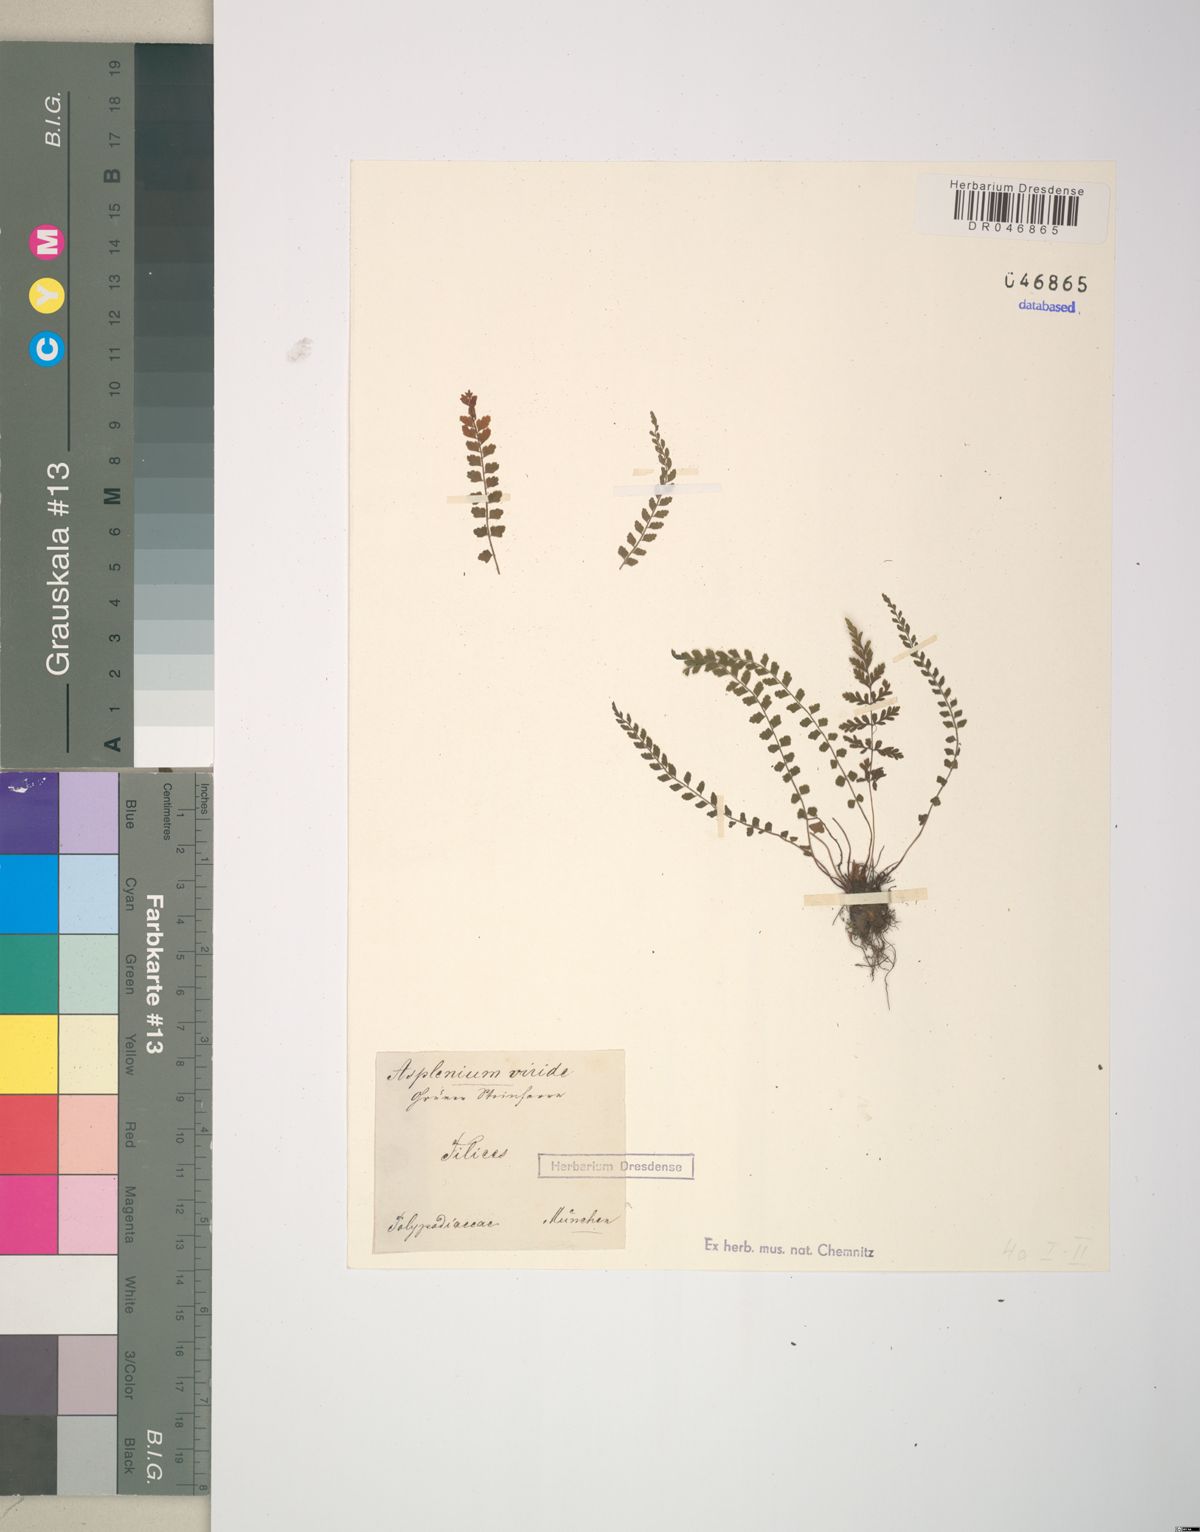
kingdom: Plantae
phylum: Tracheophyta
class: Polypodiopsida
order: Polypodiales
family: Aspleniaceae
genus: Asplenium
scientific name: Asplenium viride
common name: Green spleenwort
